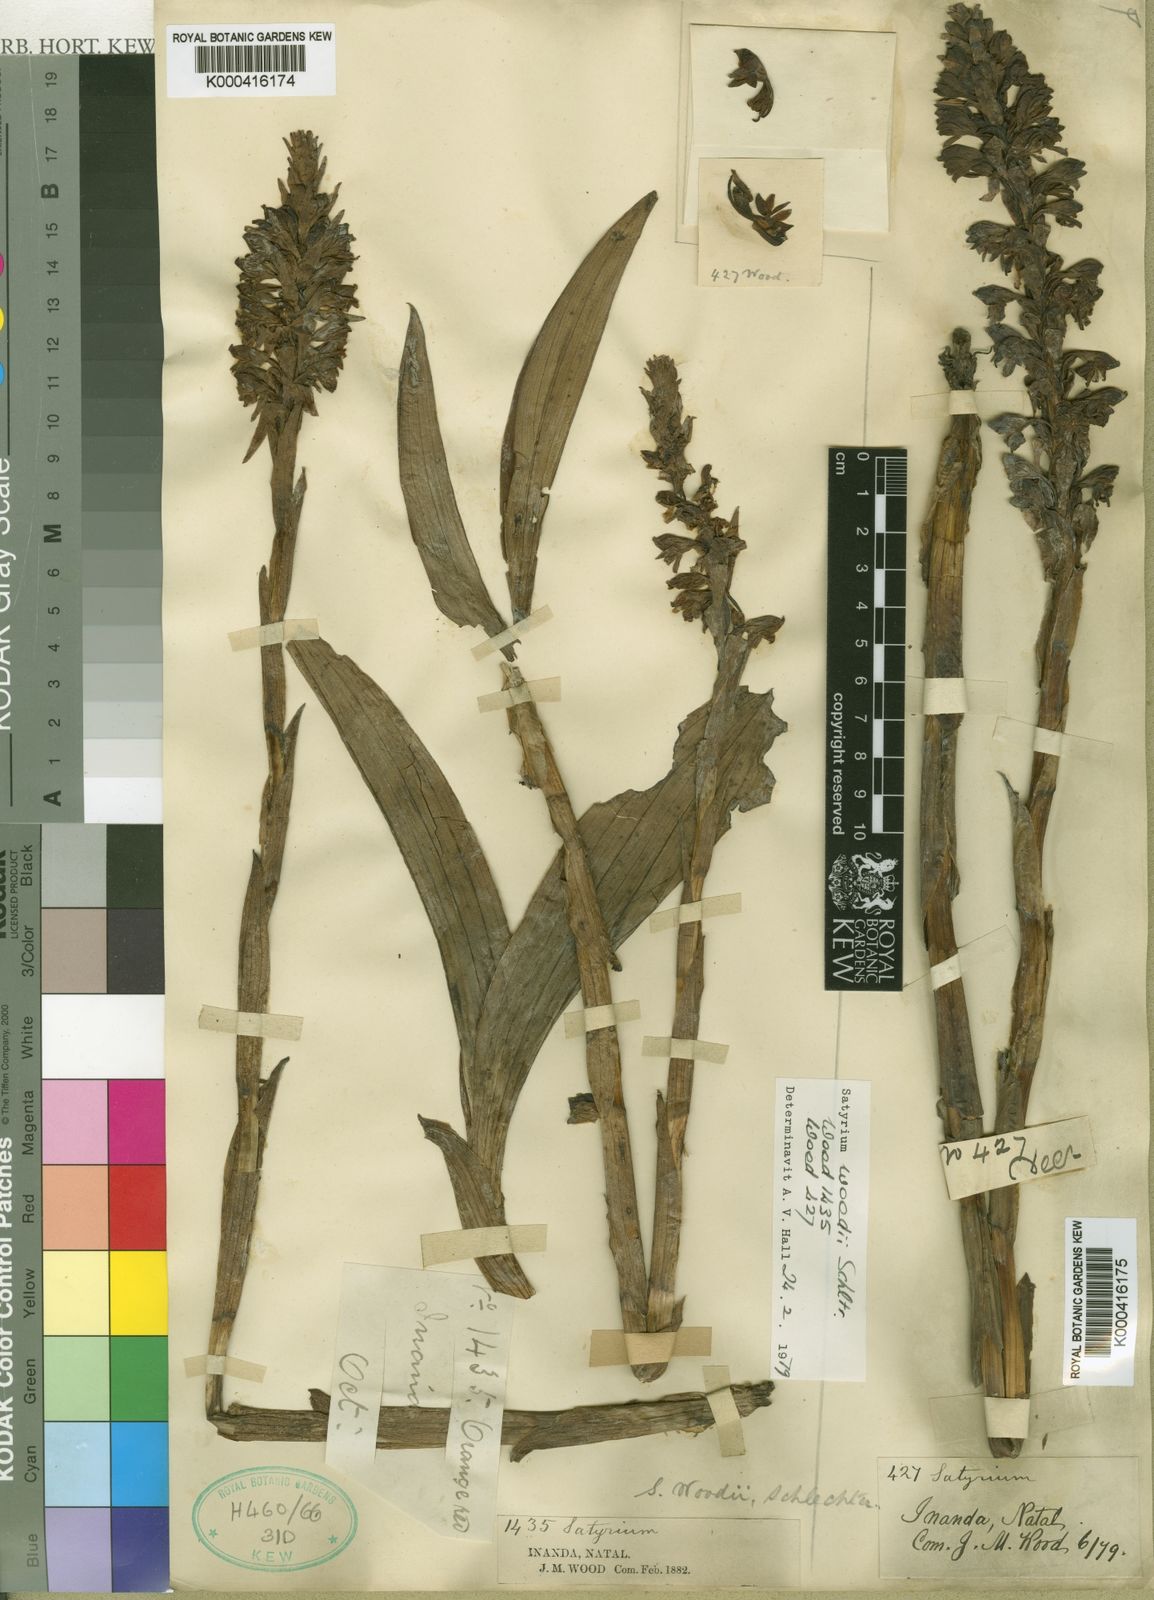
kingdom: Plantae
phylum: Tracheophyta
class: Liliopsida
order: Asparagales
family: Orchidaceae
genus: Satyrium
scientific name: Satyrium neglectum
